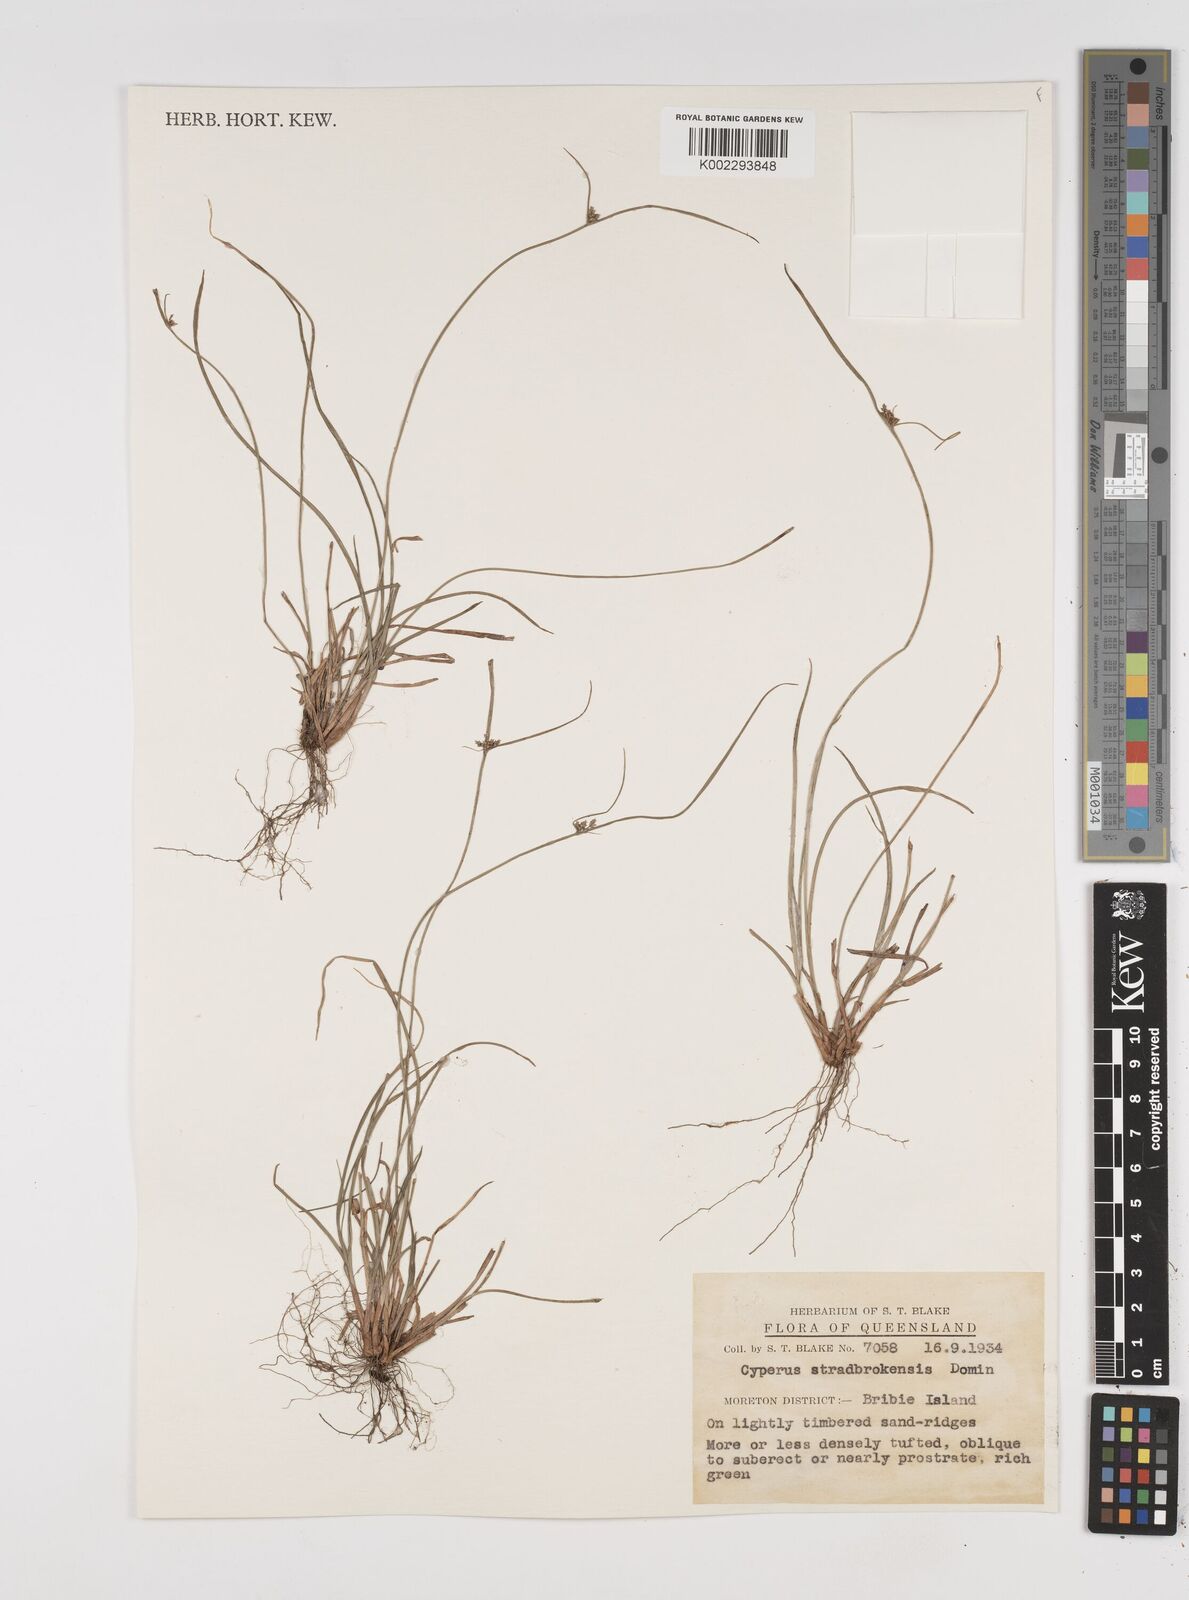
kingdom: Plantae
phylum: Tracheophyta
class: Liliopsida
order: Poales
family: Cyperaceae
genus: Cyperus
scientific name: Cyperus stradbrokensis
